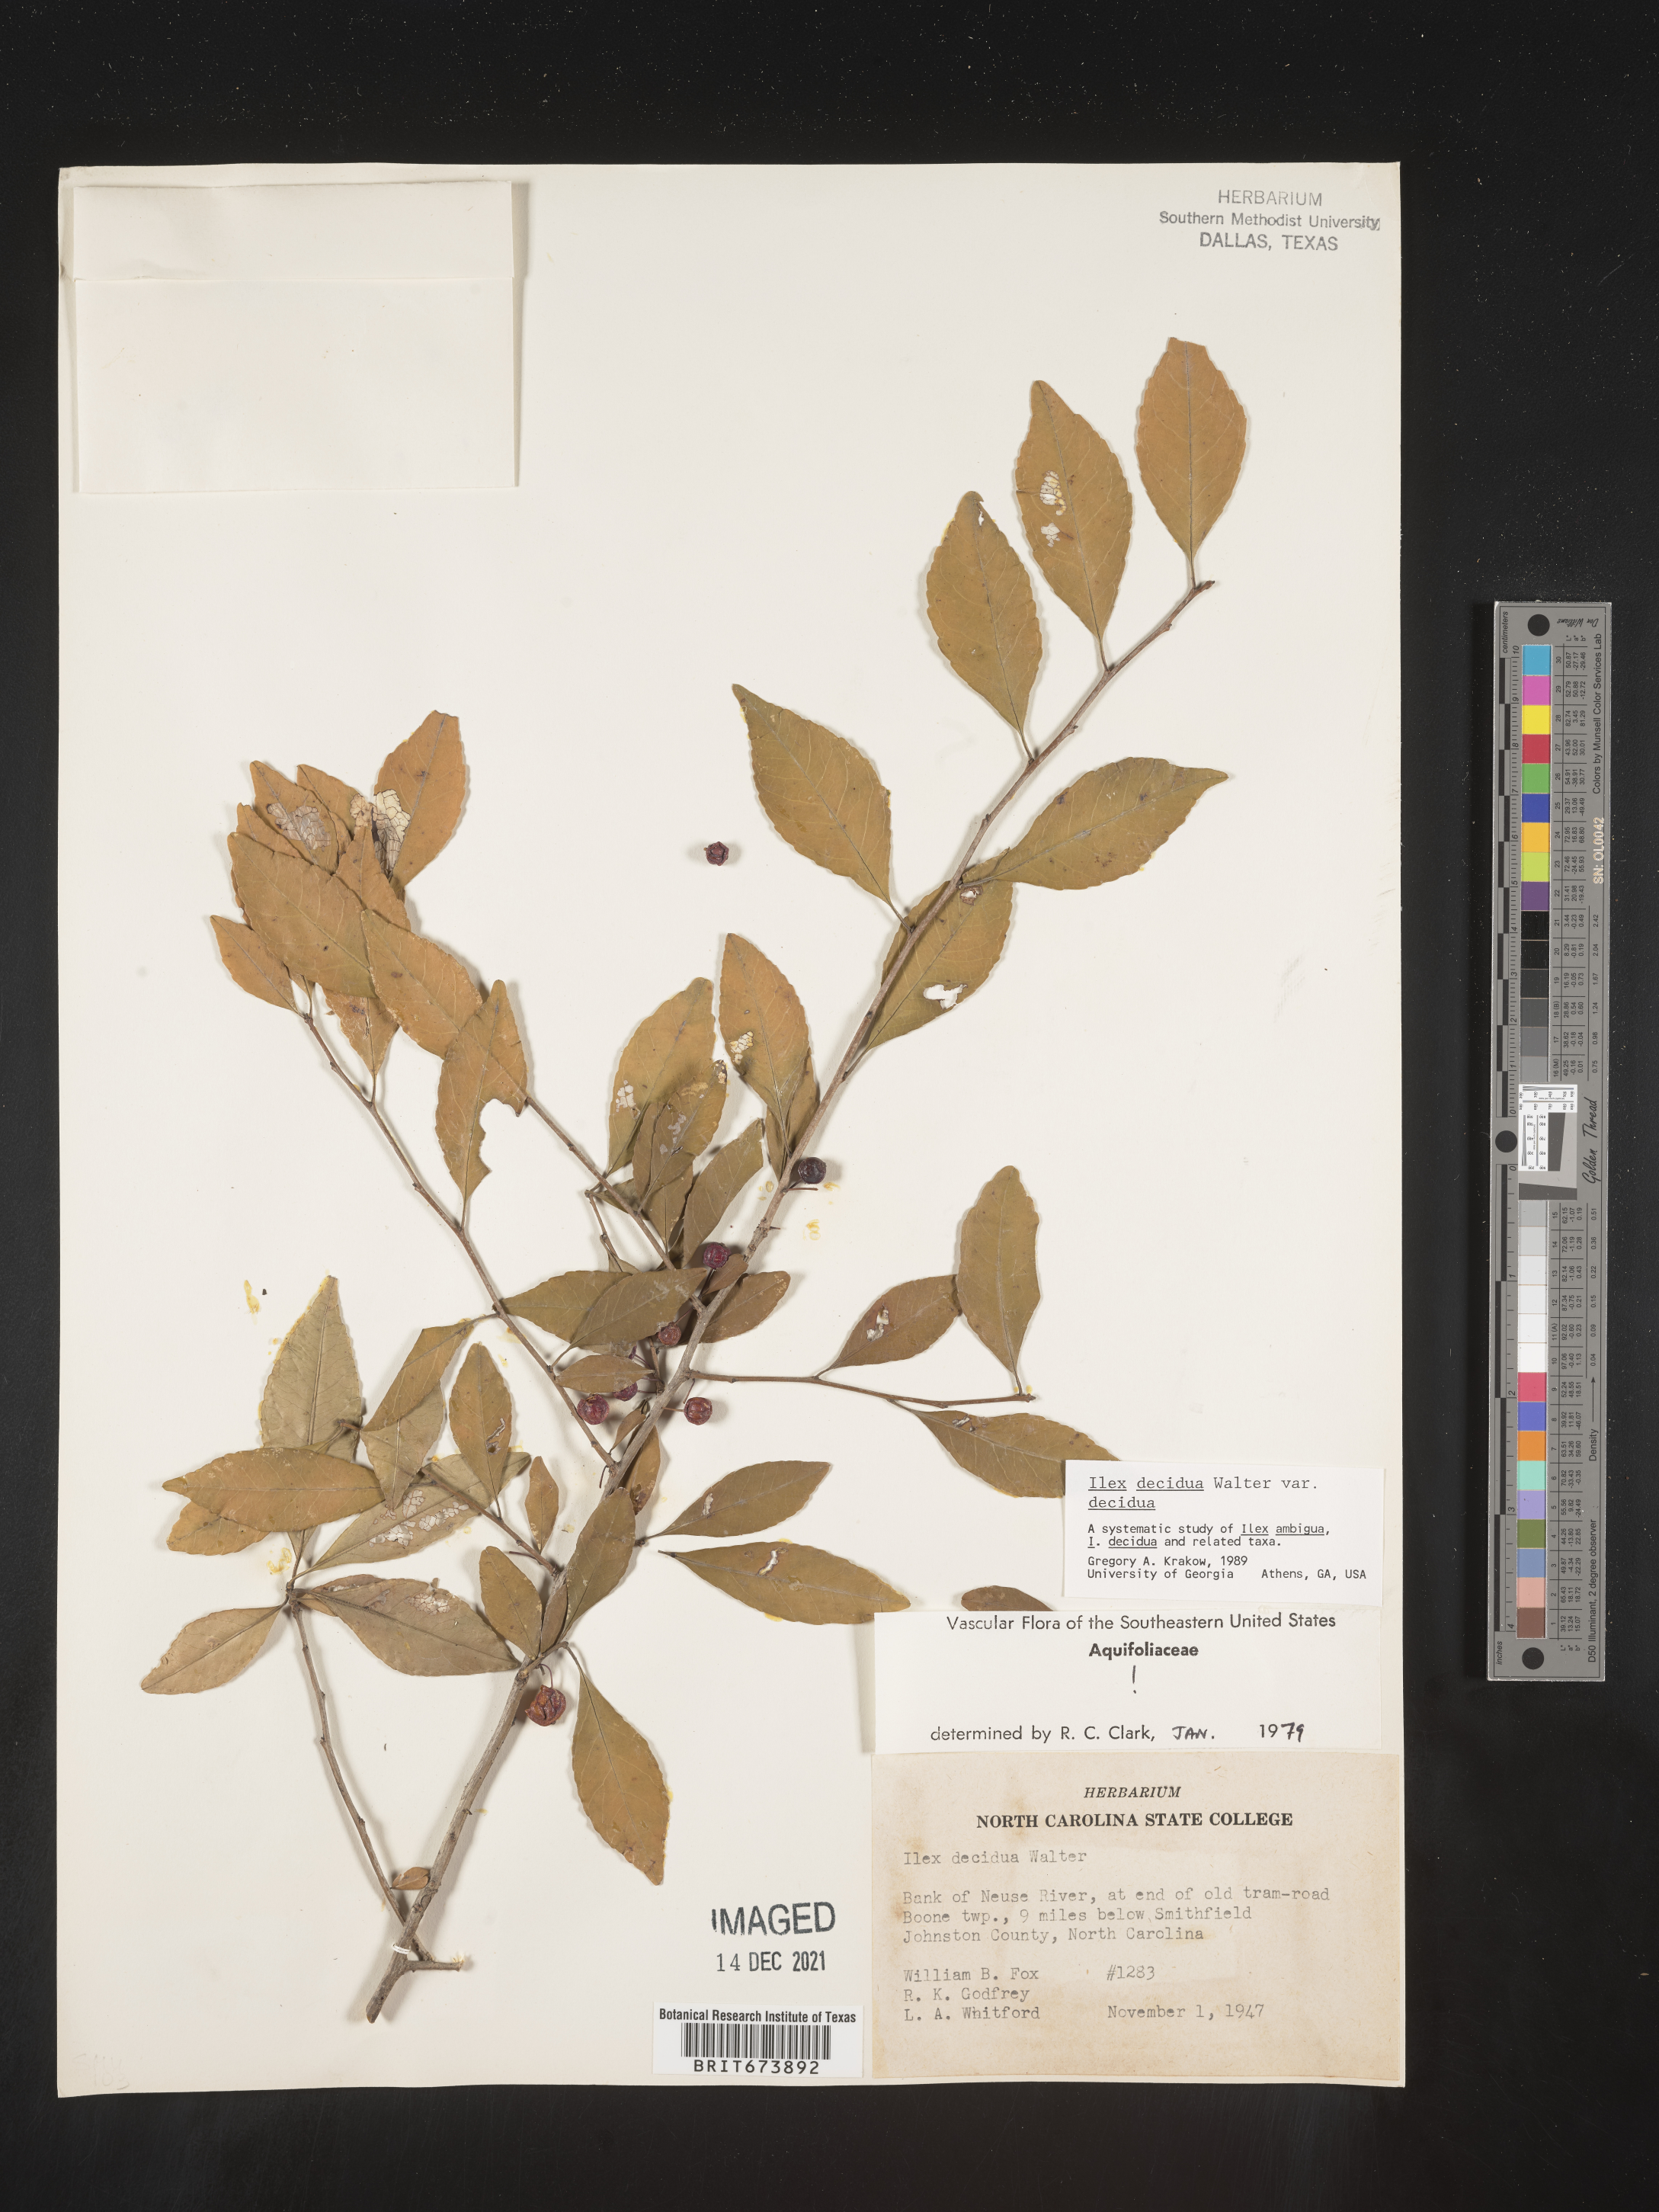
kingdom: Plantae
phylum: Tracheophyta
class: Magnoliopsida
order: Aquifoliales
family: Aquifoliaceae
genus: Ilex
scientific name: Ilex decidua
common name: Possum-haw
